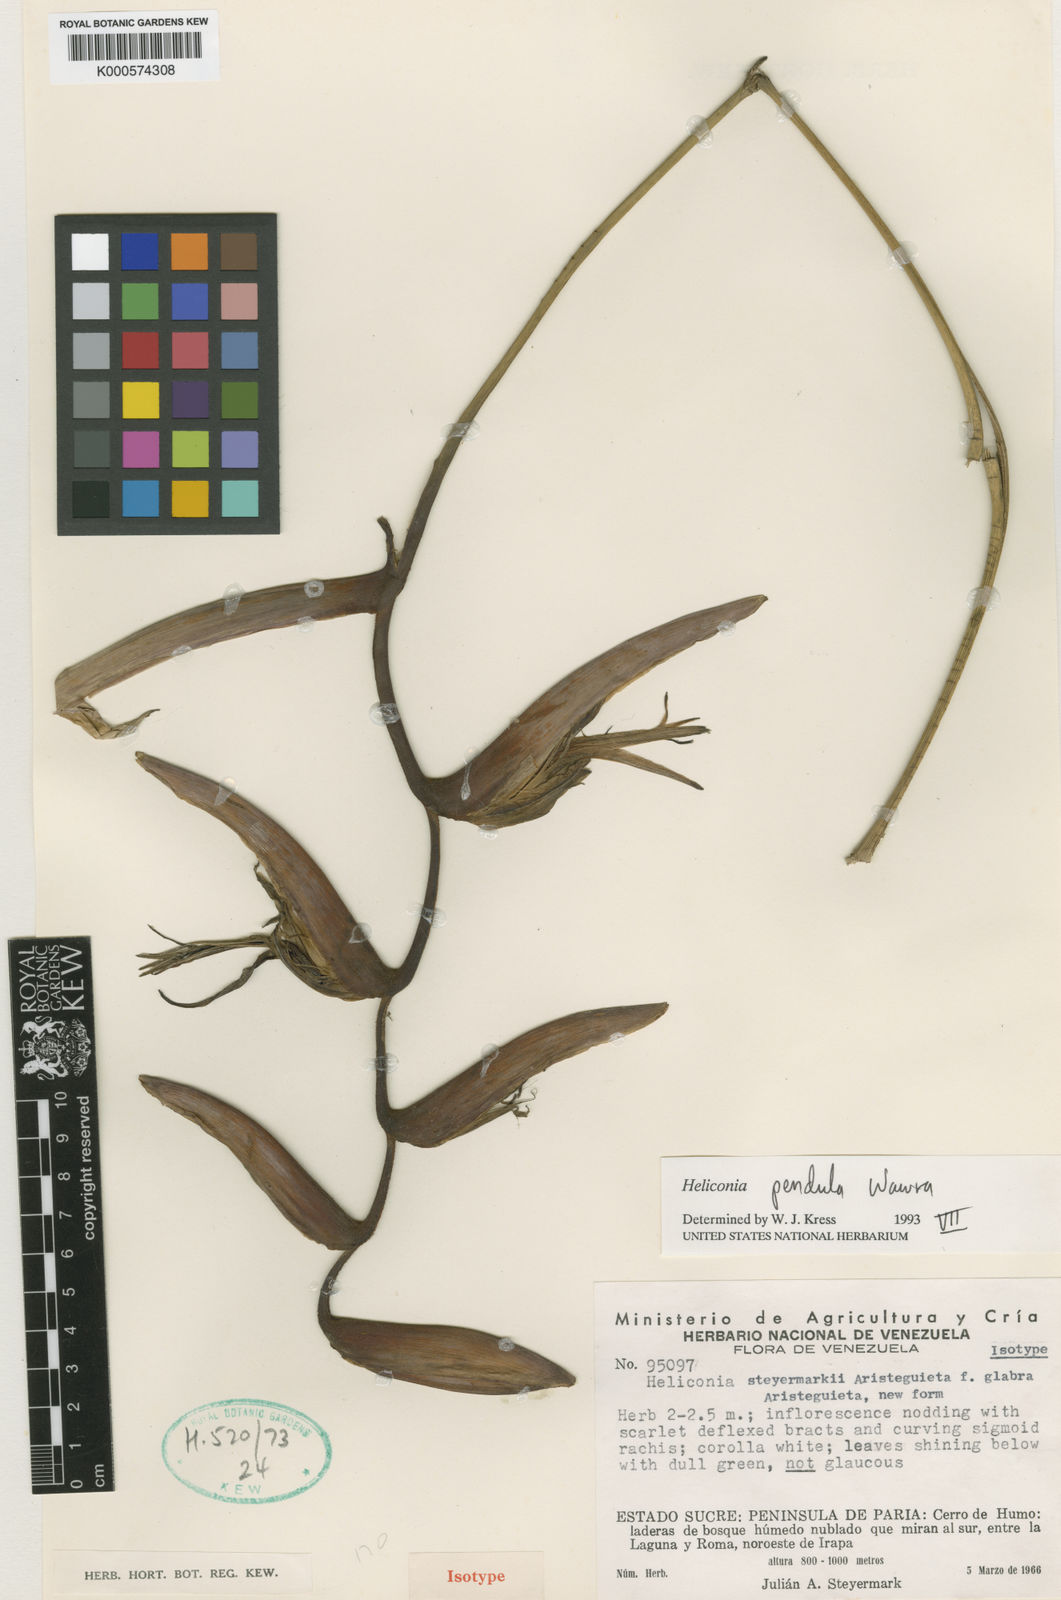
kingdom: Plantae
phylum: Tracheophyta
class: Liliopsida
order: Zingiberales
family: Heliconiaceae
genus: Heliconia
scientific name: Heliconia revoluta
